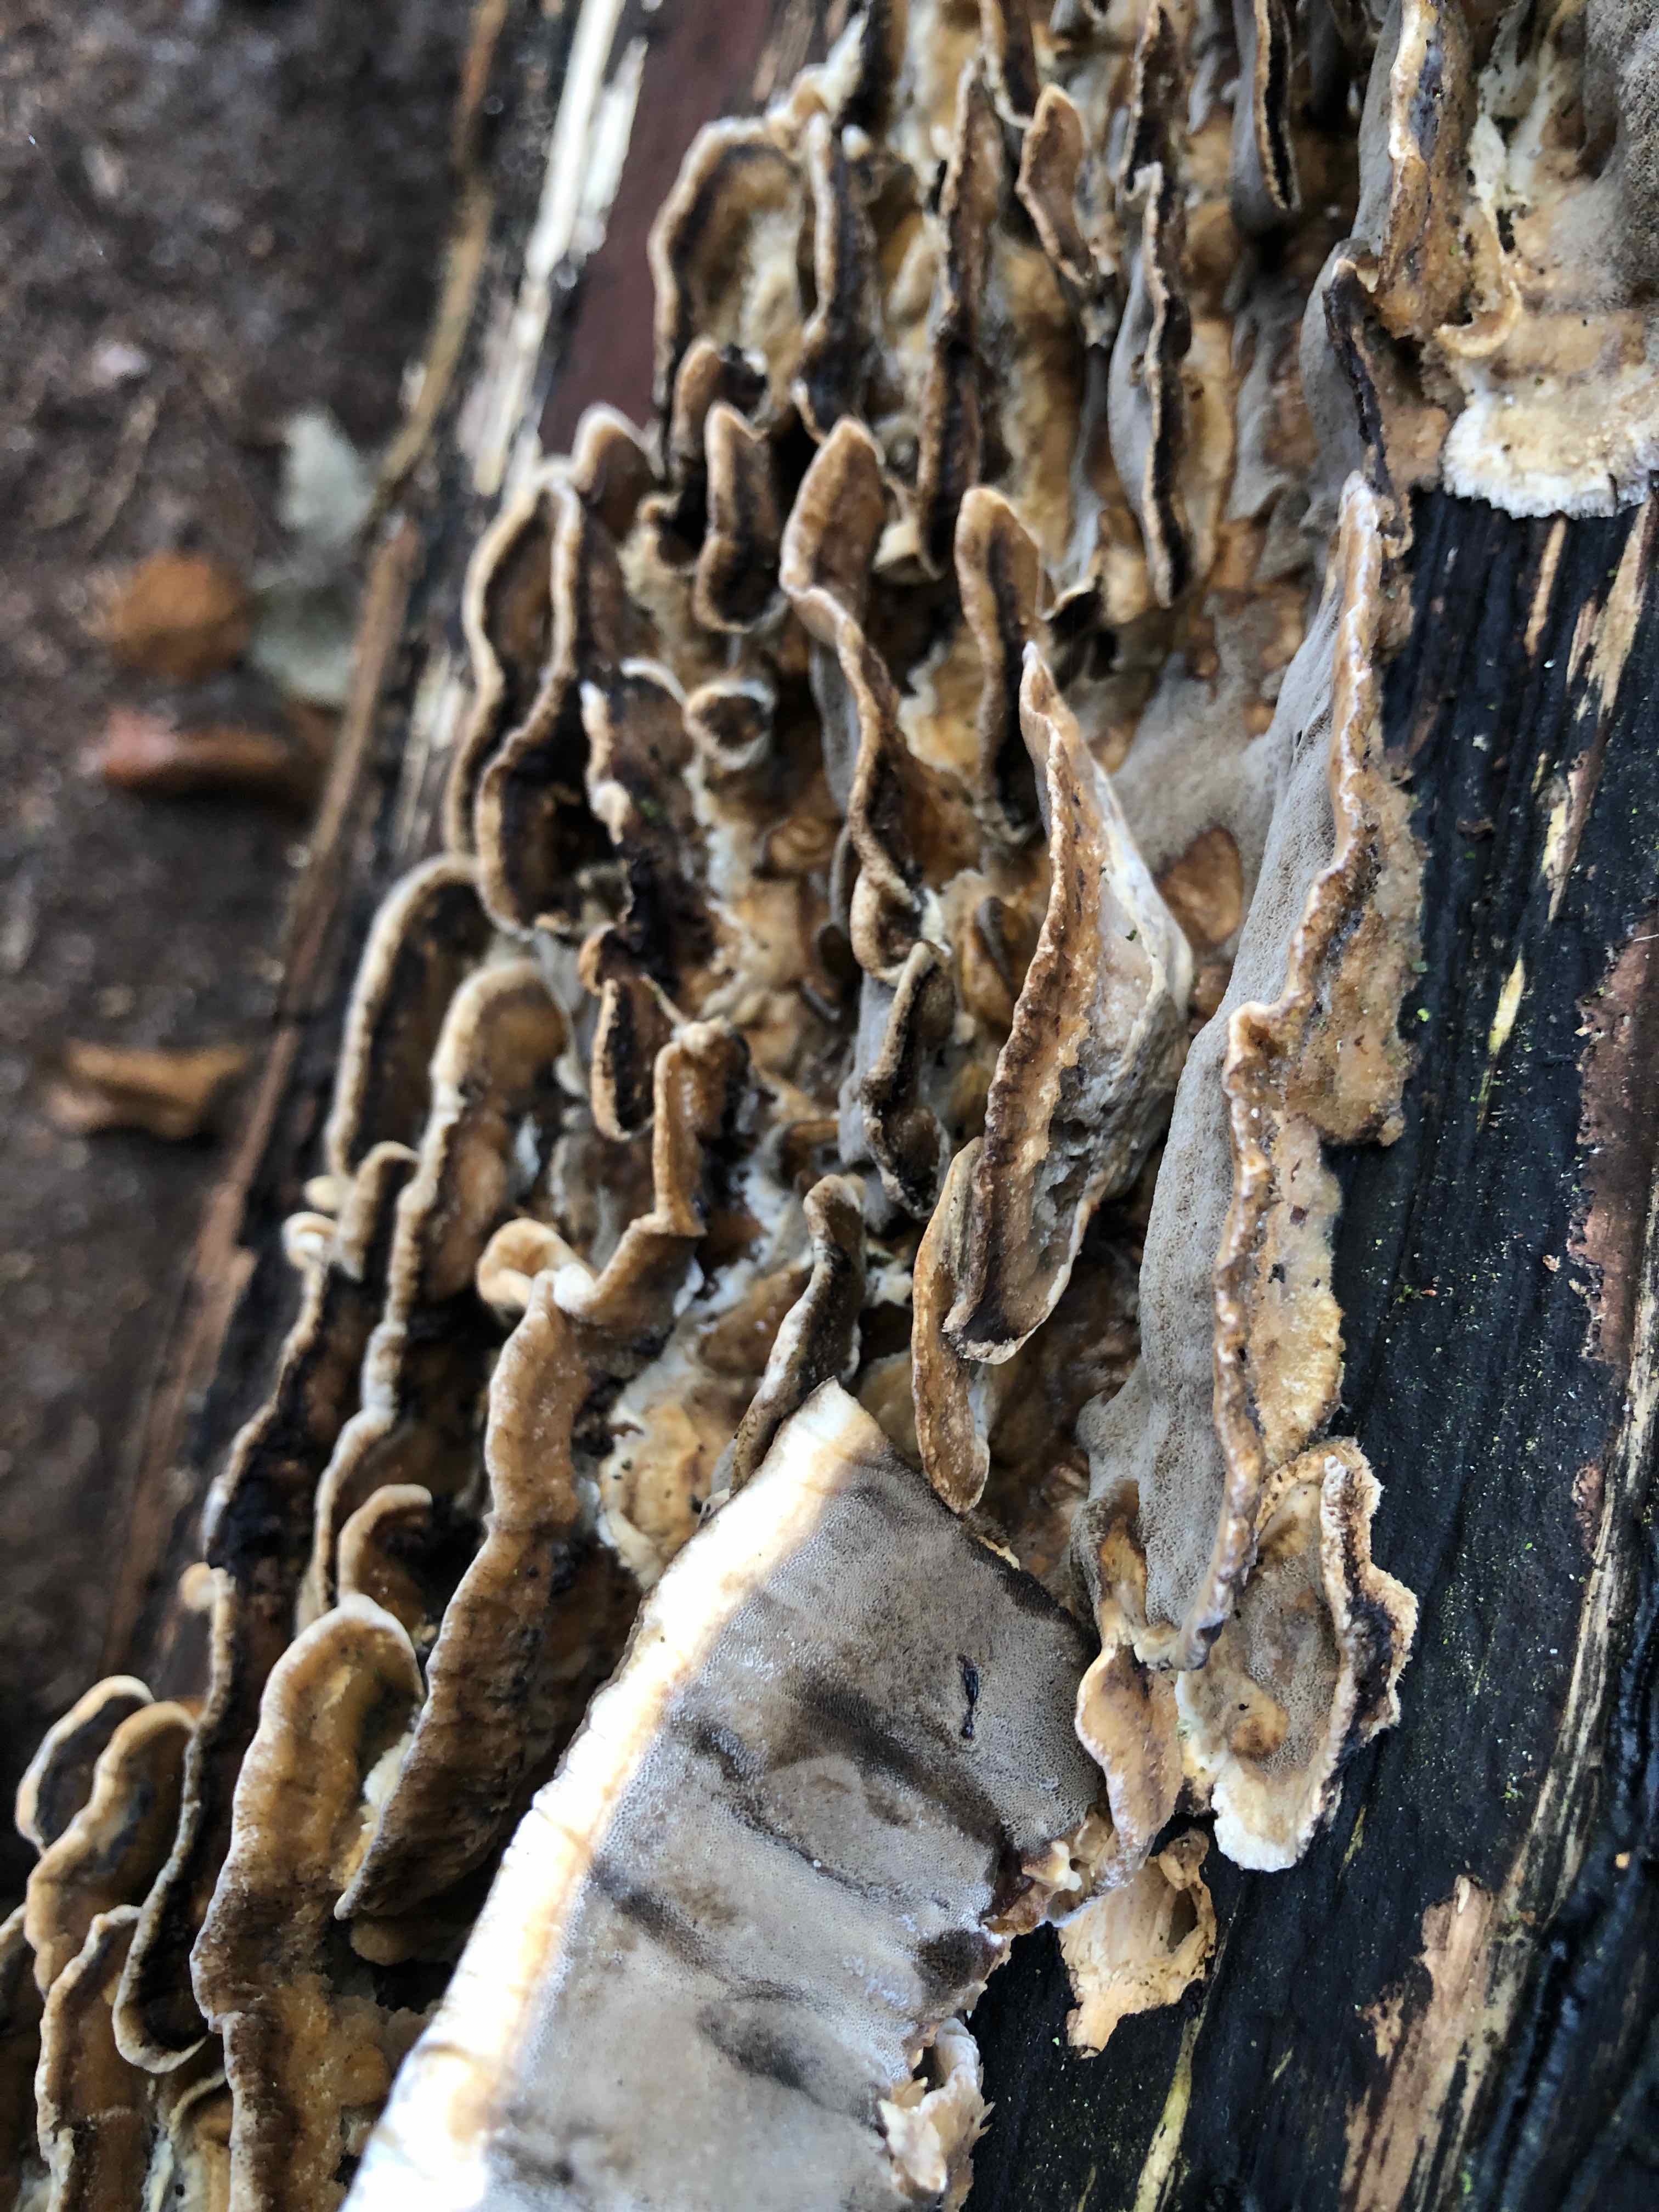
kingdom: Fungi
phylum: Basidiomycota
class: Agaricomycetes
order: Polyporales
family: Phanerochaetaceae
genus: Bjerkandera
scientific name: Bjerkandera adusta
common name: sveden sodporesvamp
